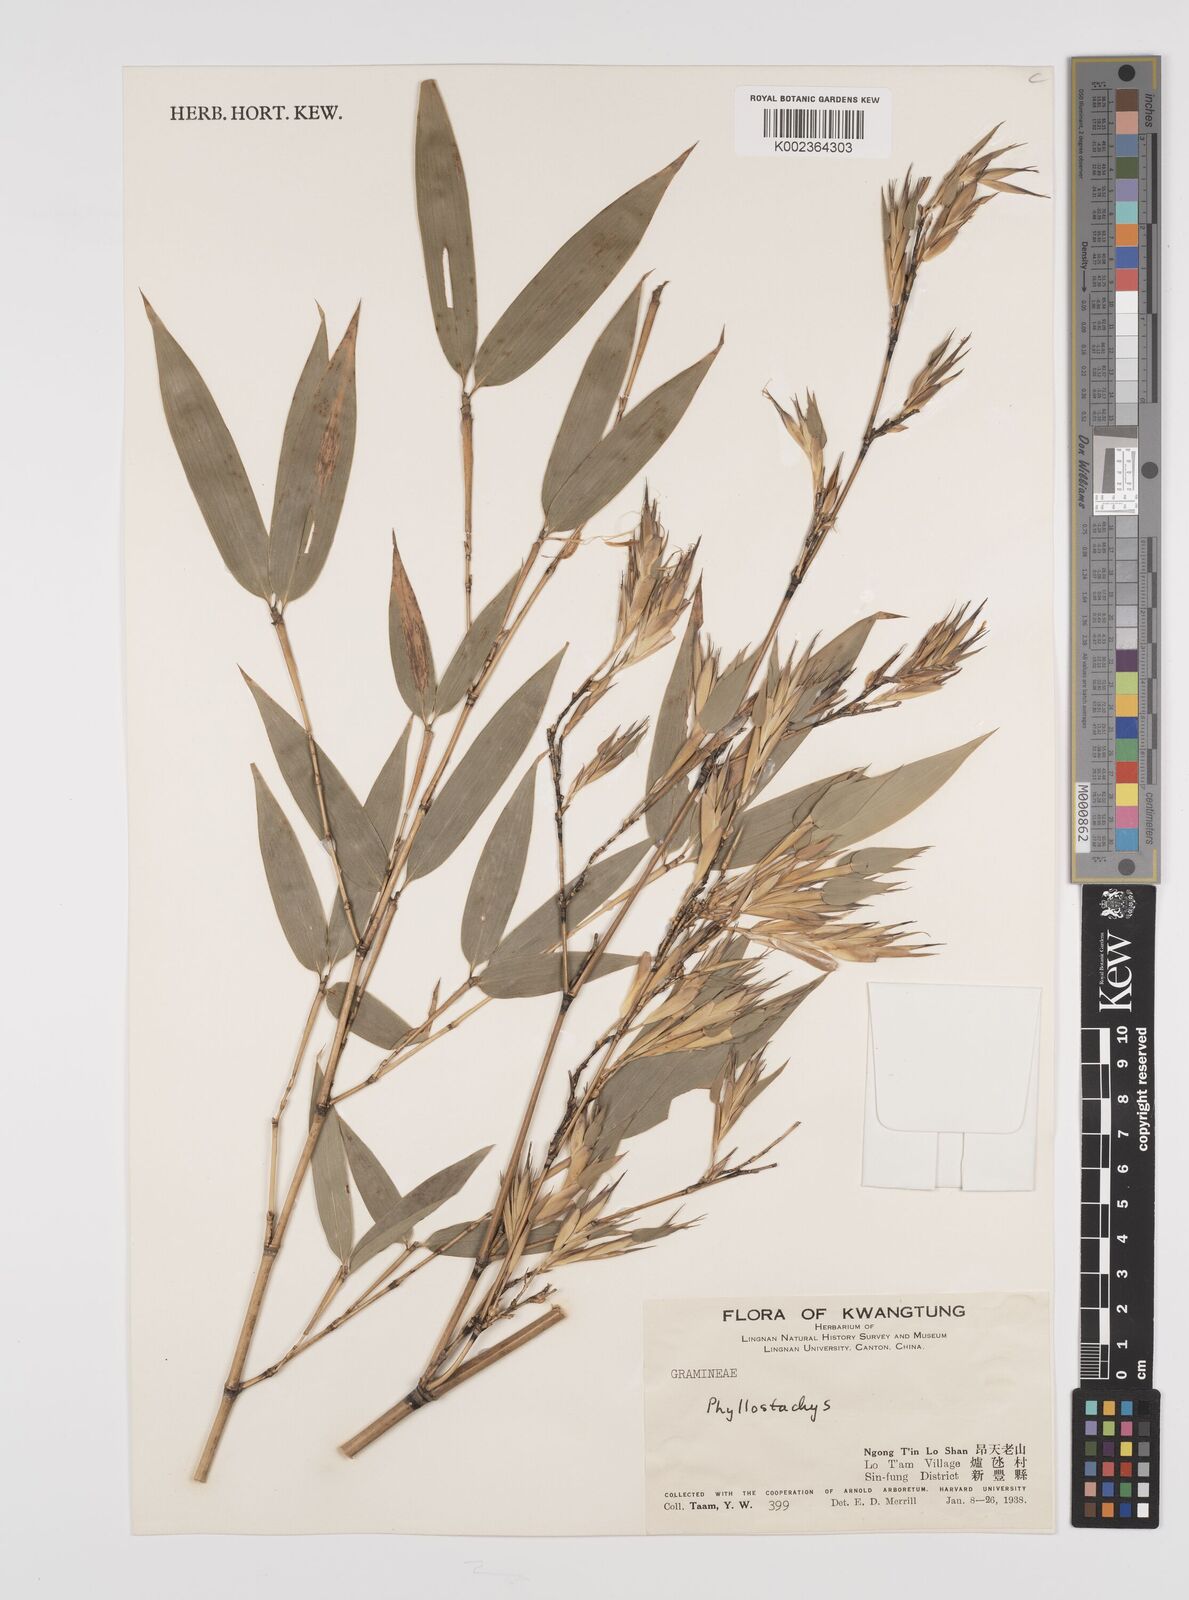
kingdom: Plantae
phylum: Tracheophyta
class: Liliopsida
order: Poales
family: Poaceae
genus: Phyllostachys
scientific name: Phyllostachys
